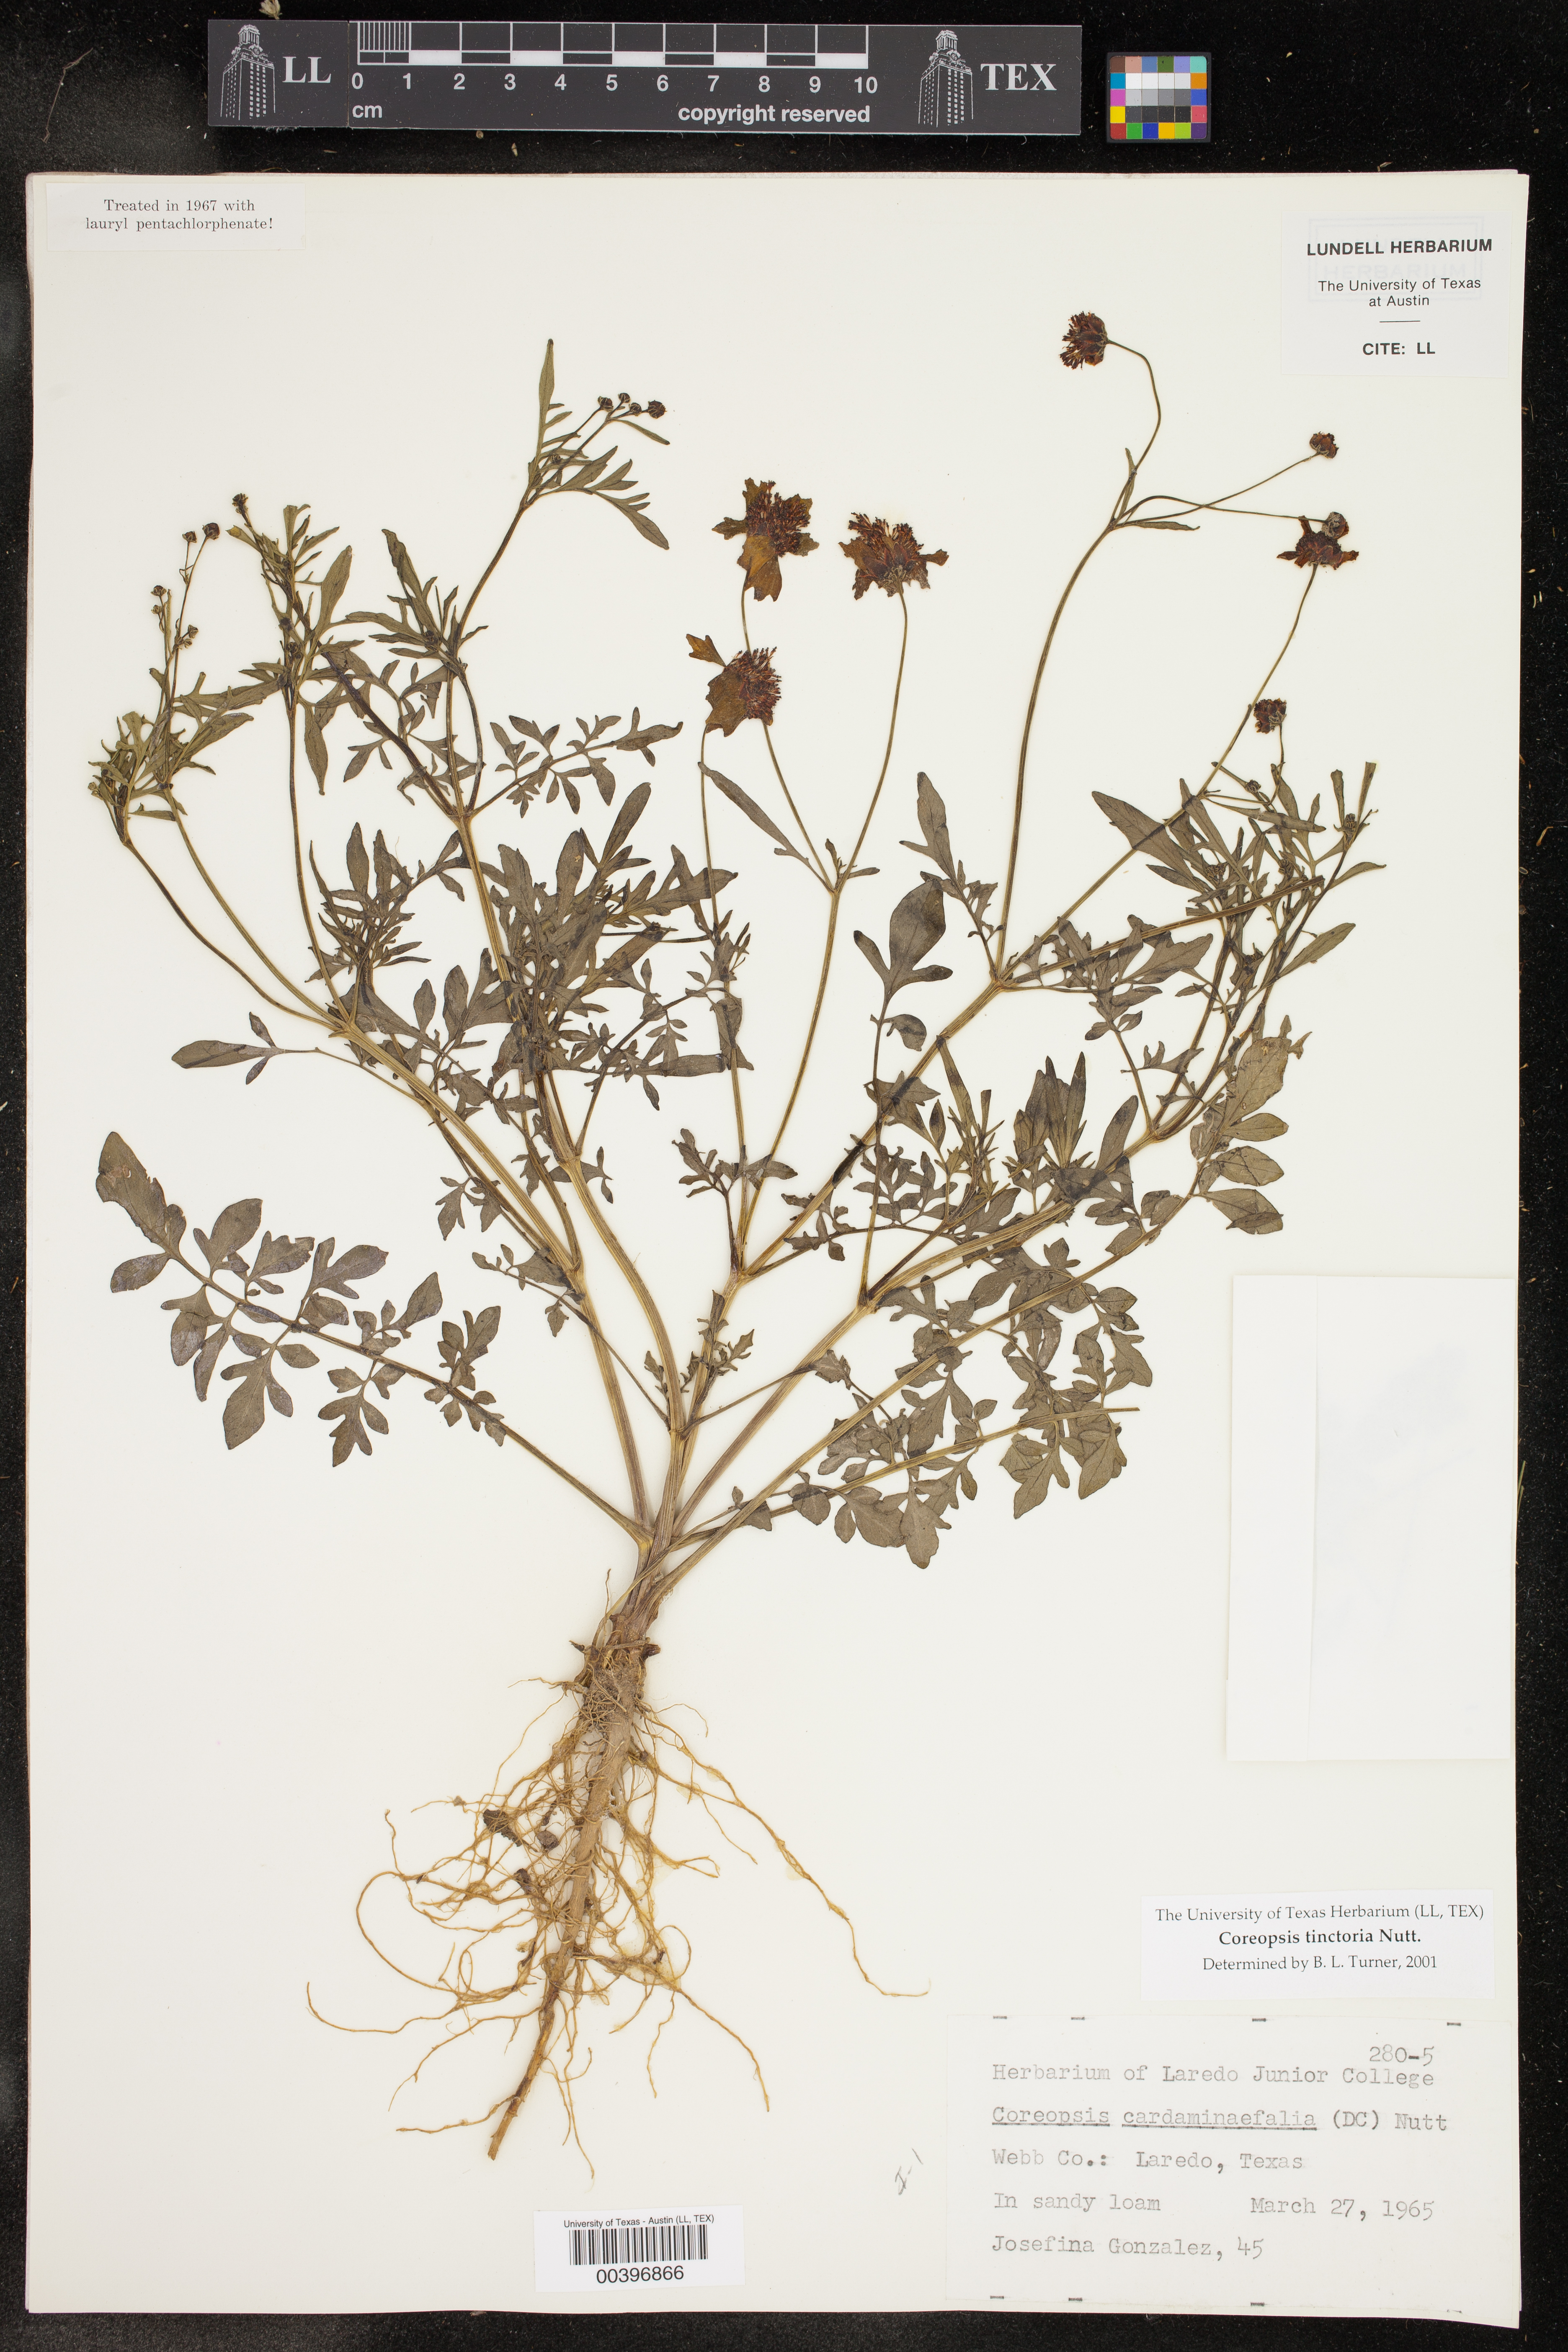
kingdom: Plantae
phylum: Tracheophyta
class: Magnoliopsida
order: Asterales
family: Asteraceae
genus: Coreopsis
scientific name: Coreopsis tinctoria
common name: Garden tickseed
